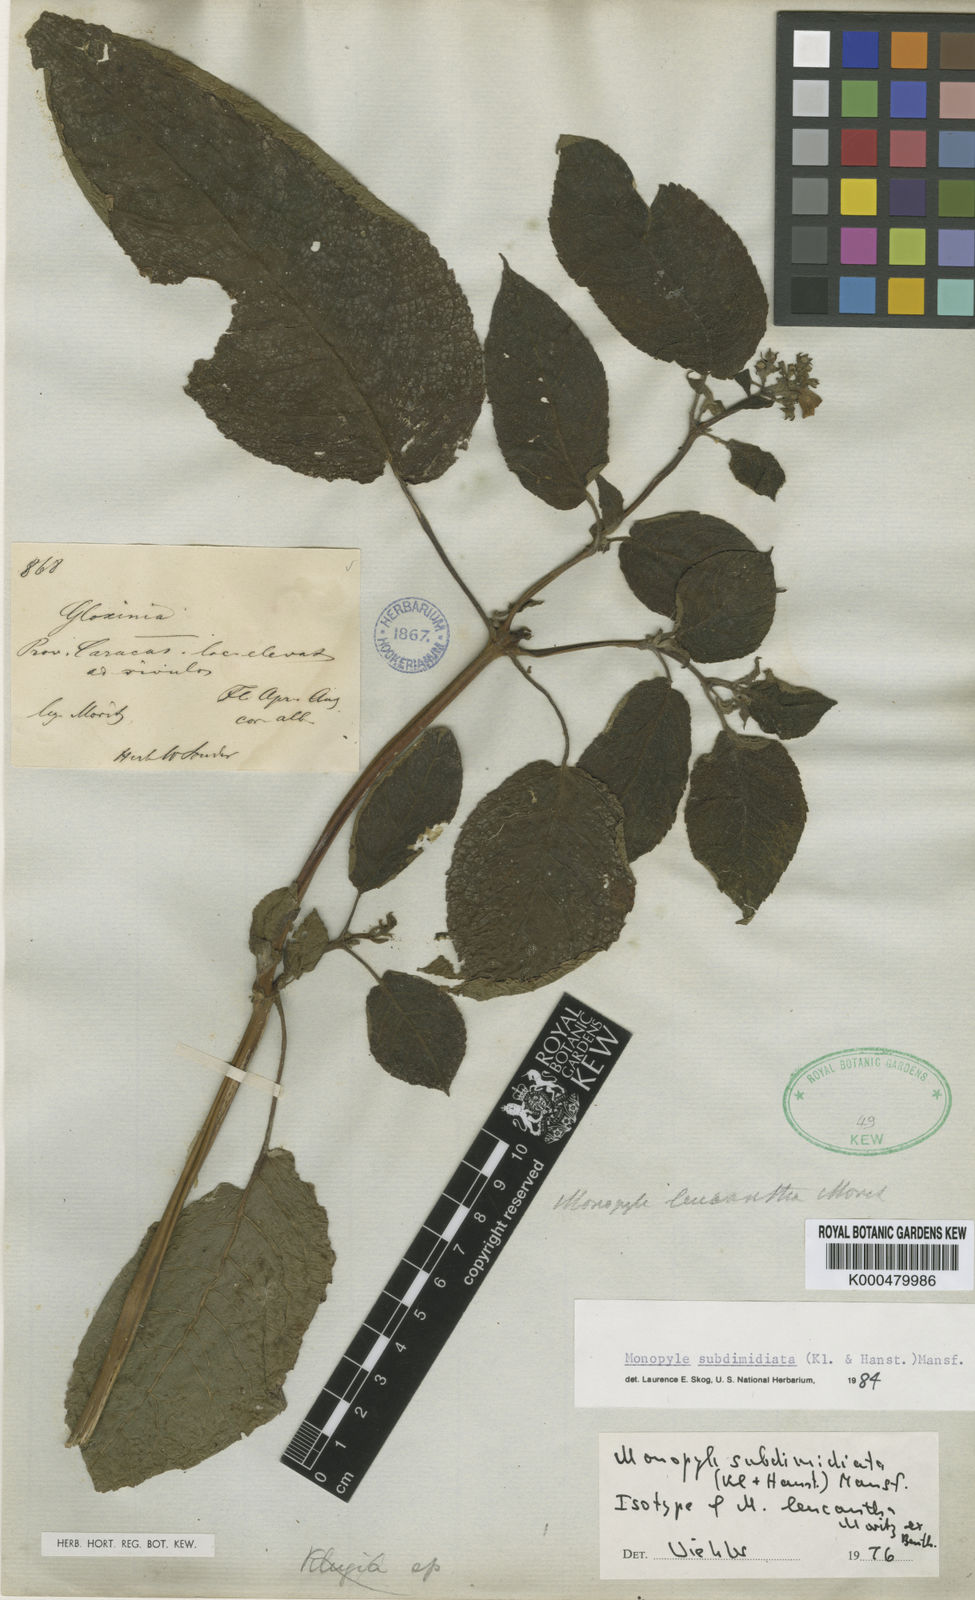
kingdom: Plantae
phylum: Tracheophyta
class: Magnoliopsida
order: Lamiales
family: Gesneriaceae
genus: Monopyle
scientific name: Monopyle subdimidiata
